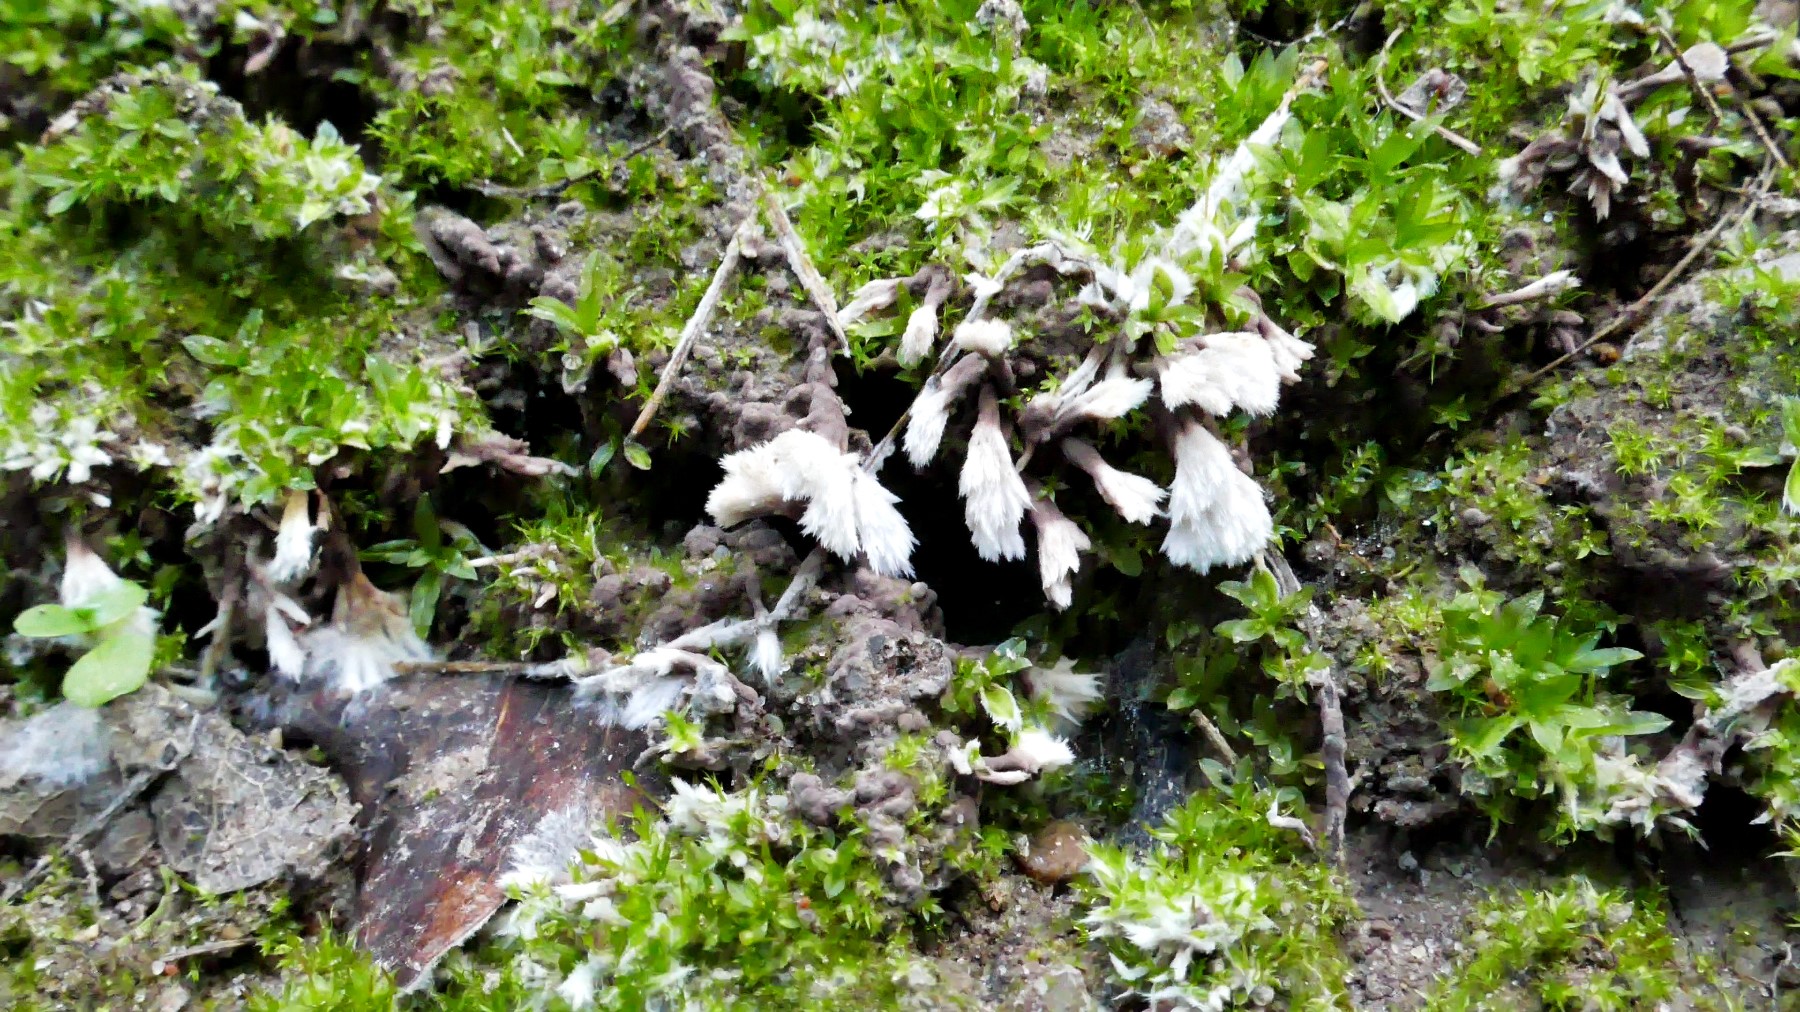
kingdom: Fungi
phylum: Basidiomycota
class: Agaricomycetes
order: Thelephorales
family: Thelephoraceae
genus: Thelephora
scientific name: Thelephora penicillata
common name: fladtrådt frynsesvamp
